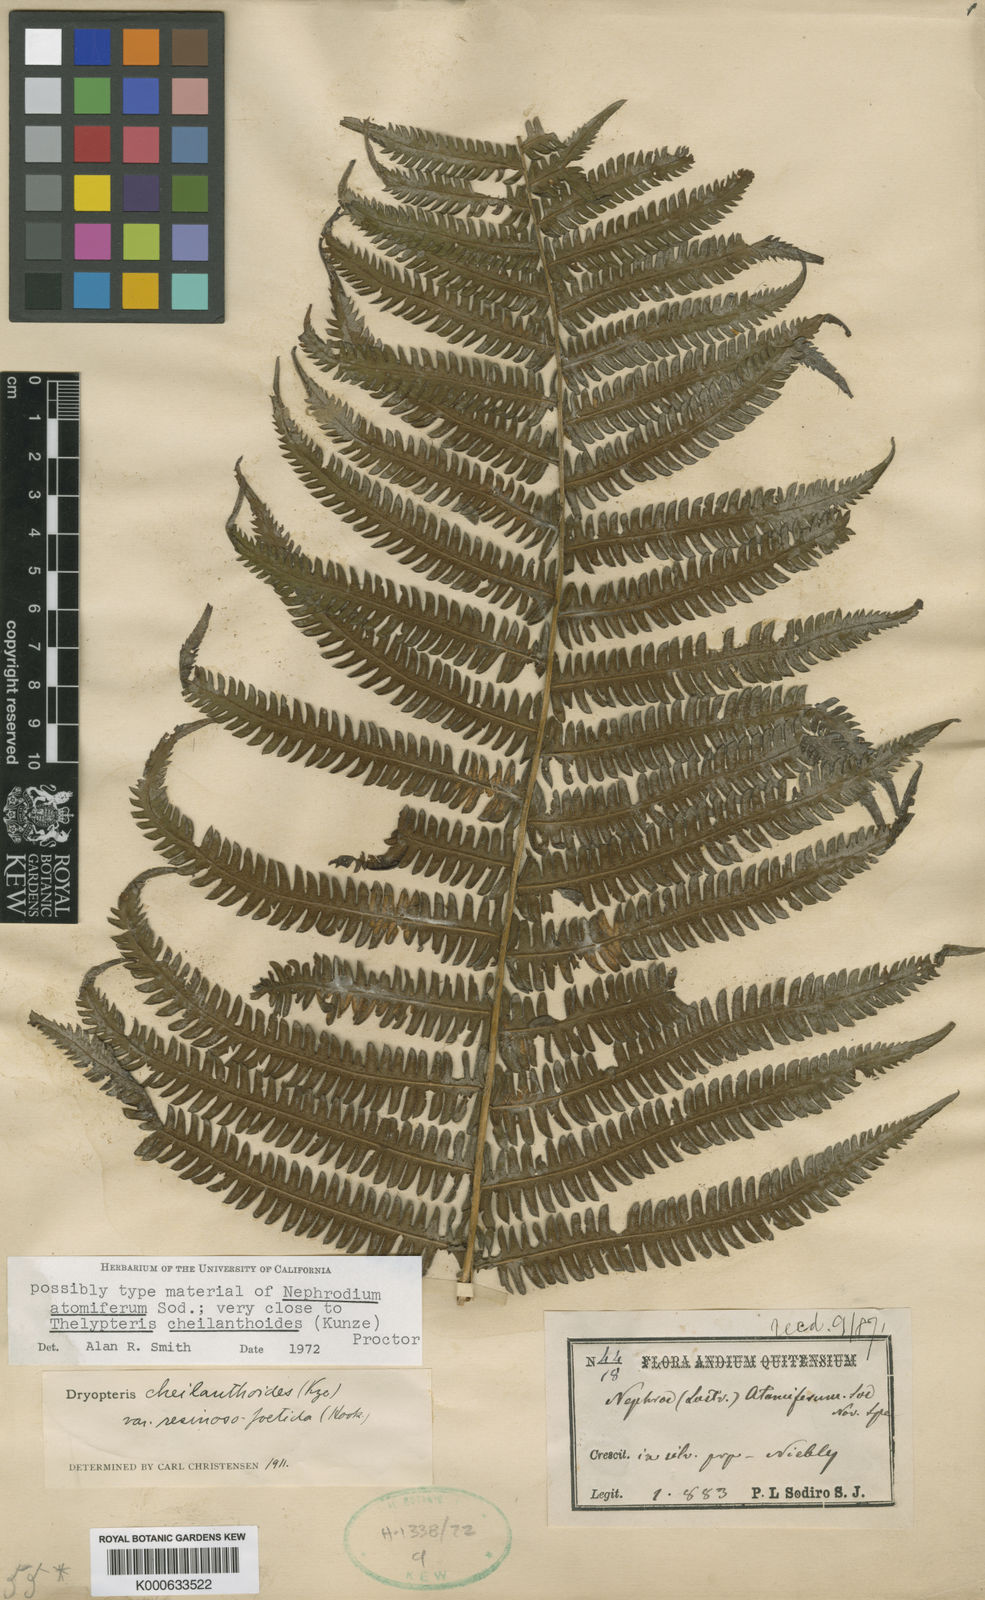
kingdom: Plantae
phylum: Tracheophyta
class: Polypodiopsida
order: Polypodiales
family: Thelypteridaceae
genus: Amauropelta
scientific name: Amauropelta
